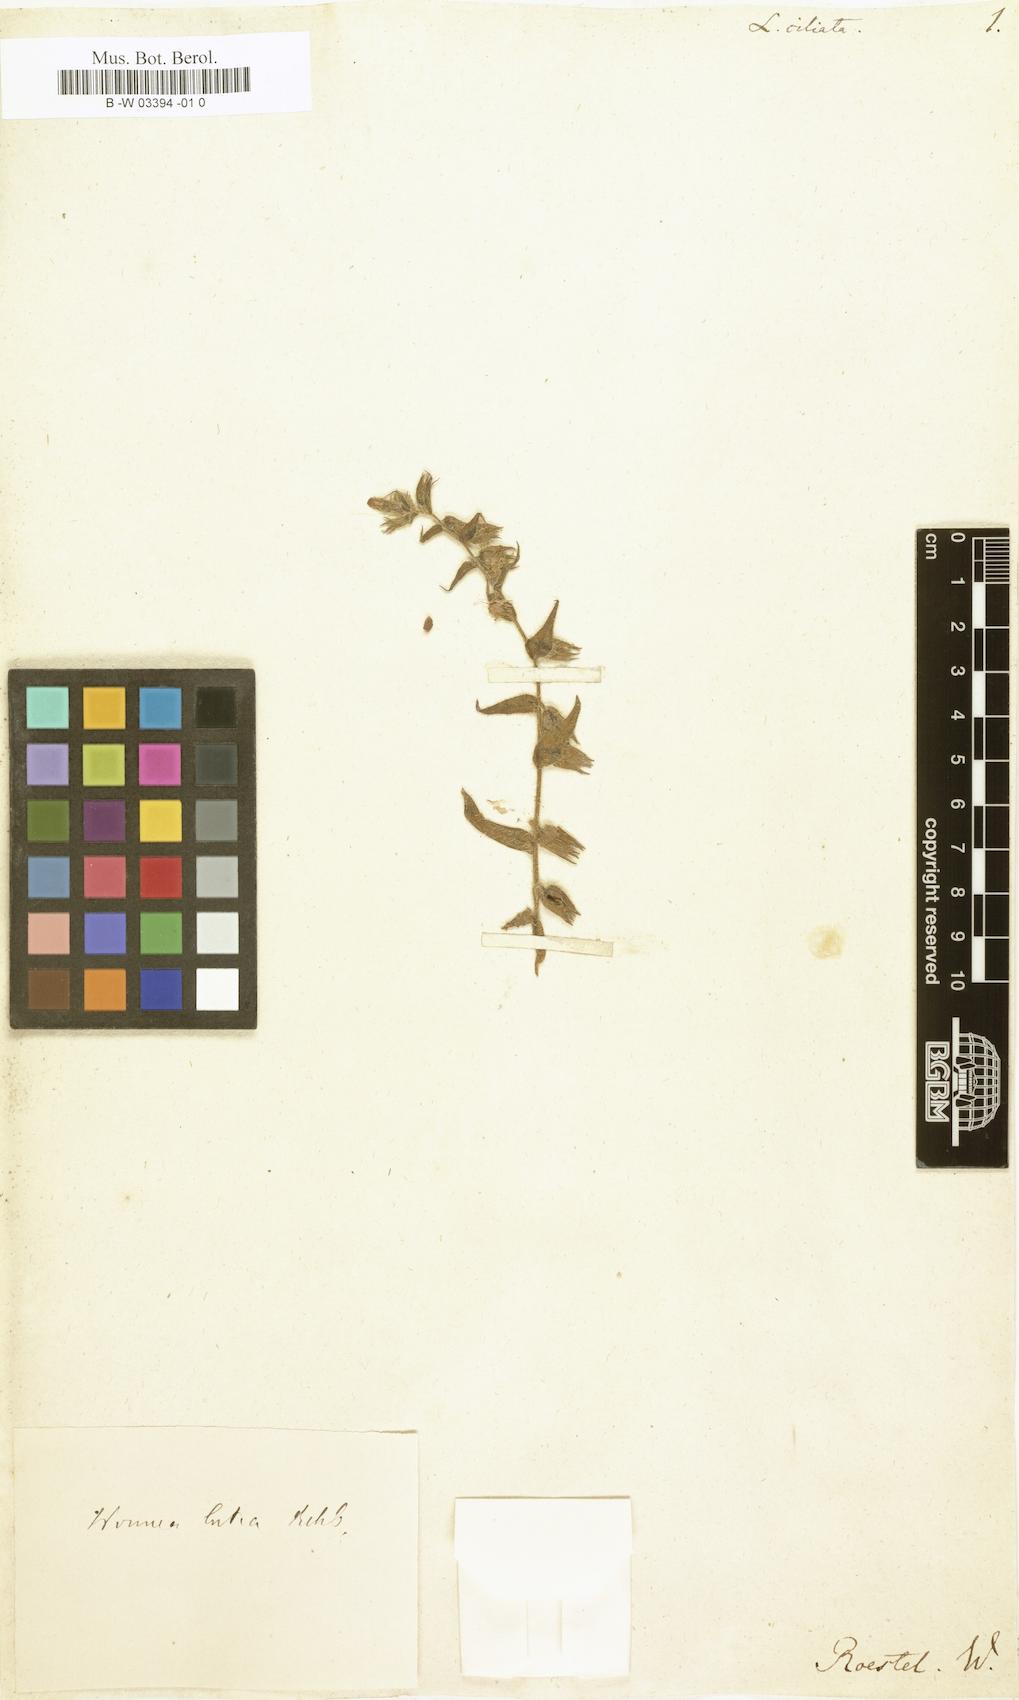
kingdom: Plantae
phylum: Tracheophyta
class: Magnoliopsida
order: Boraginales
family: Boraginaceae
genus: Nonea
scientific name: Nonea
